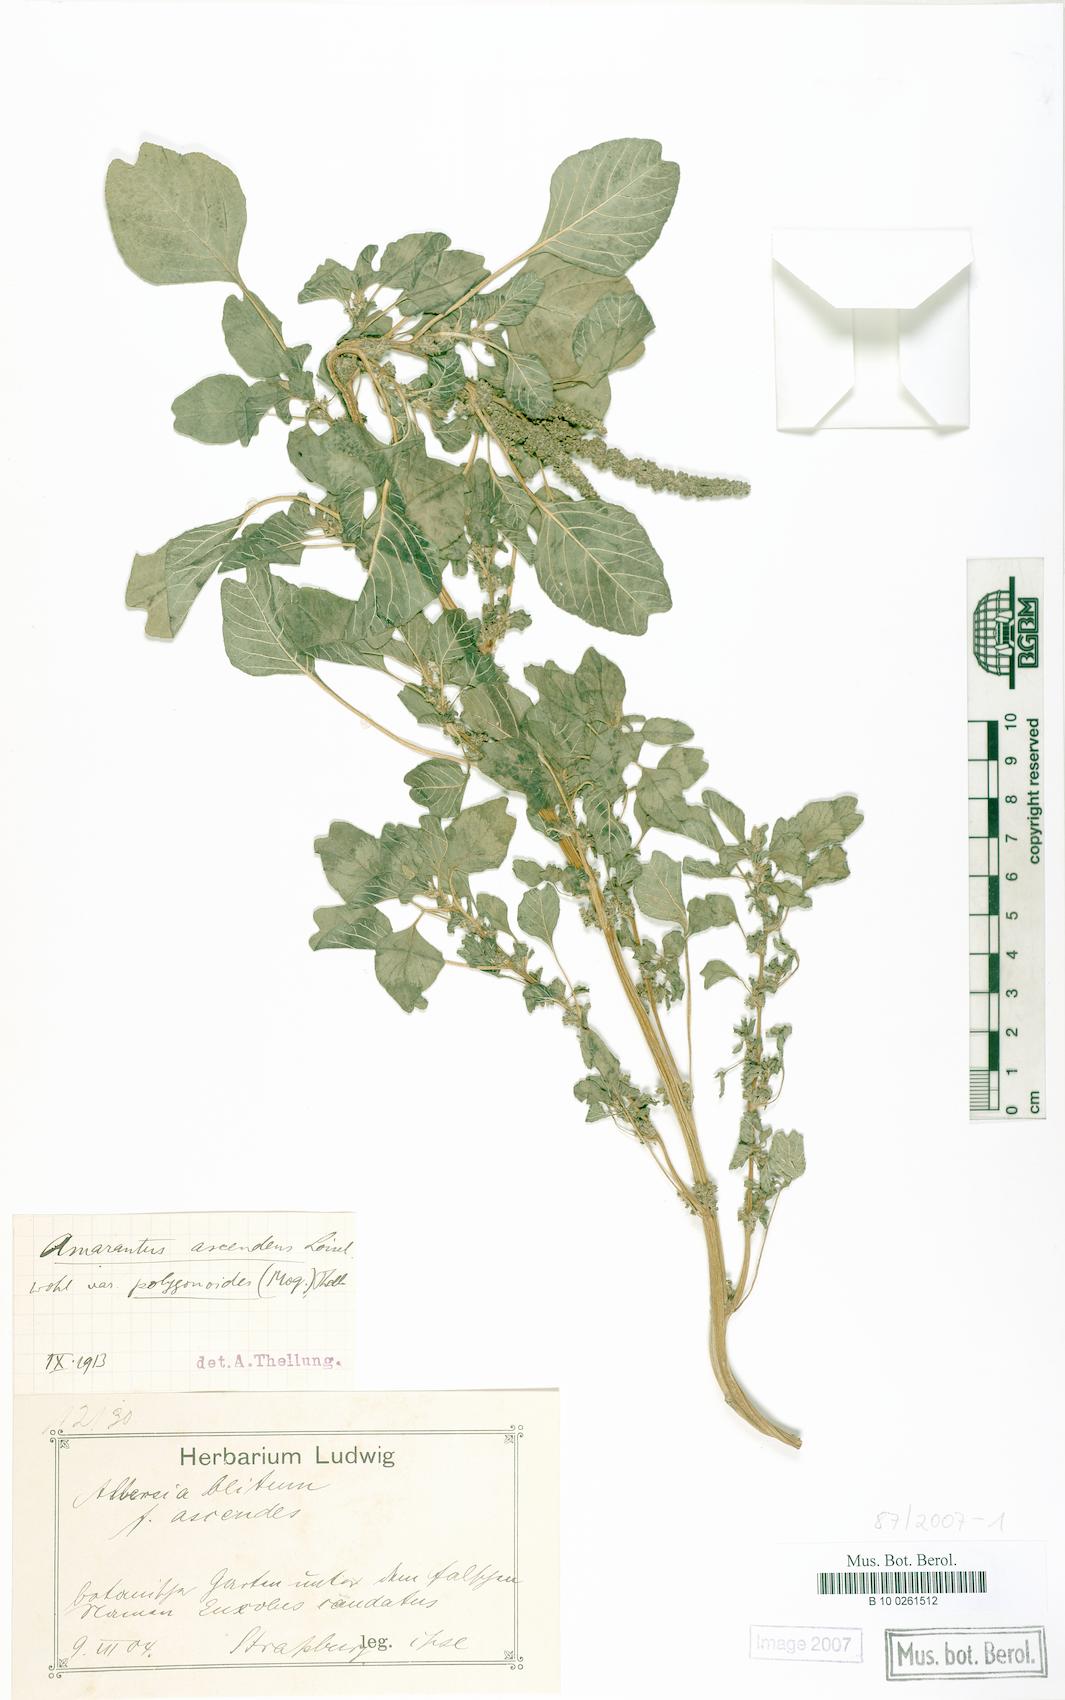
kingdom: Plantae
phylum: Tracheophyta
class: Magnoliopsida
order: Caryophyllales
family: Amaranthaceae
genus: Amaranthus
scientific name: Amaranthus emarginatus
